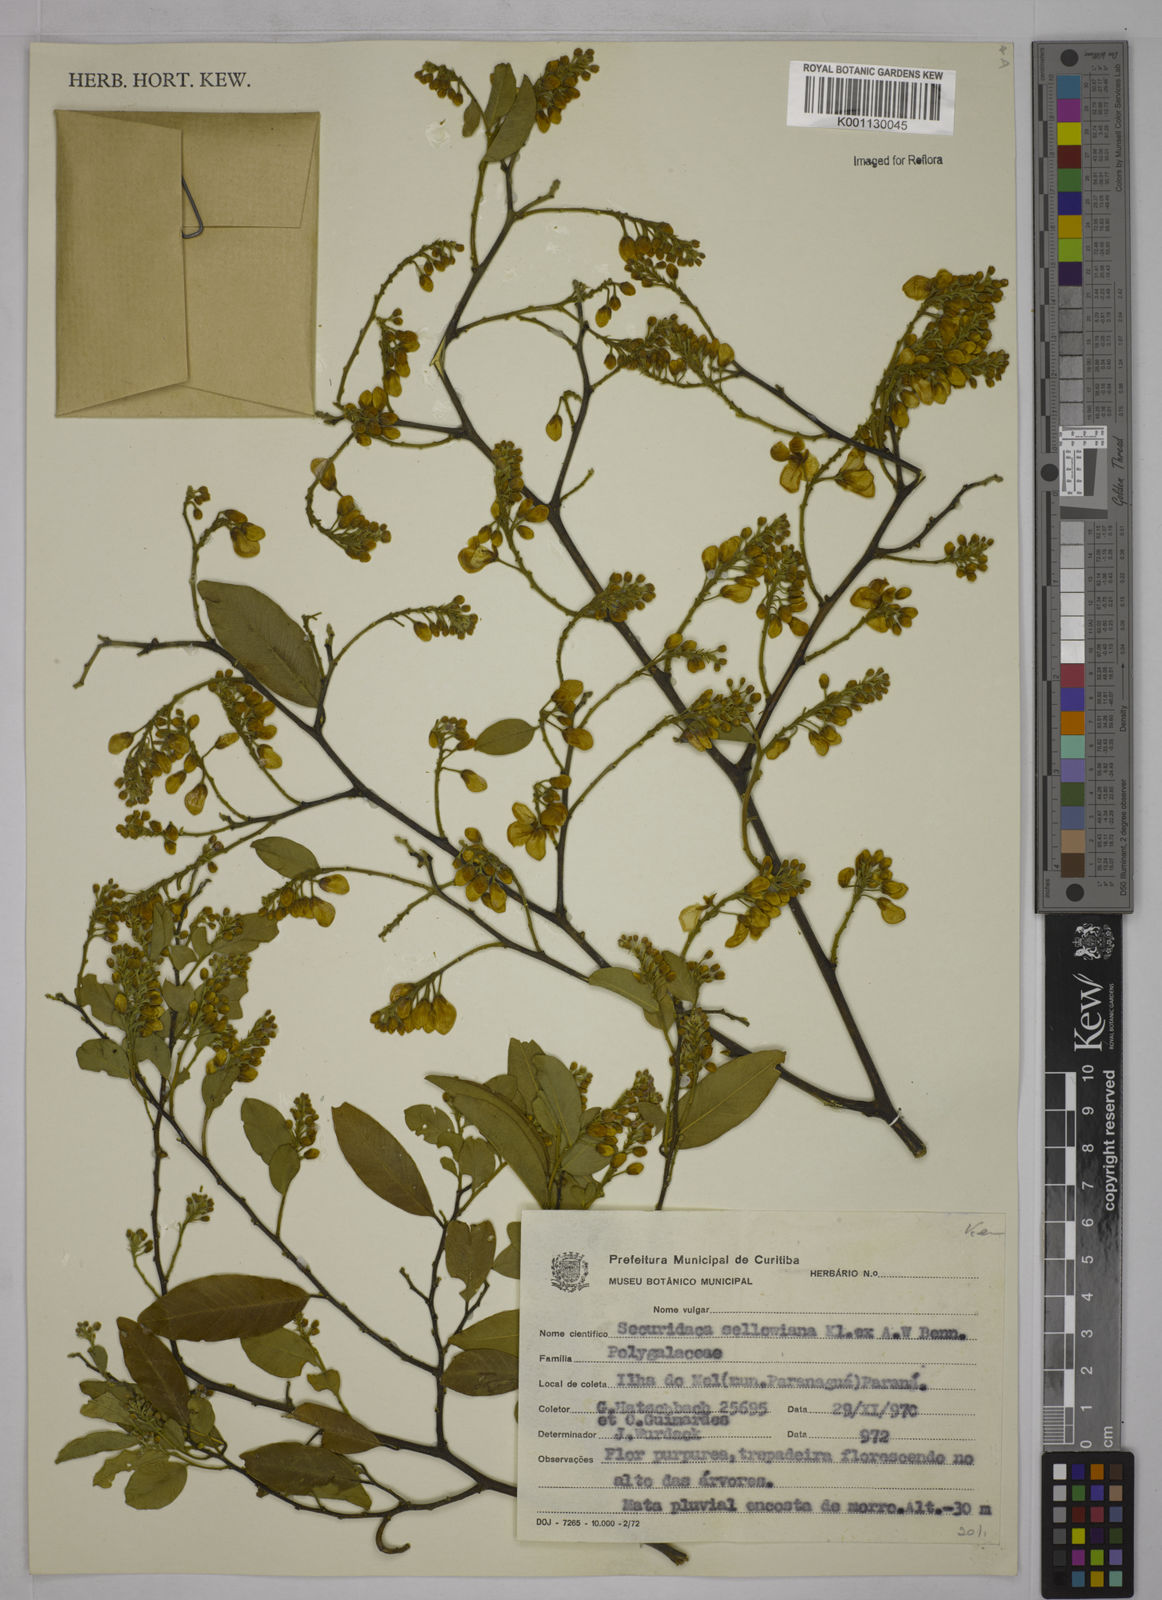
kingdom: Plantae
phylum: Tracheophyta
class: Magnoliopsida
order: Fabales
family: Polygalaceae
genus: Securidaca
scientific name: Securidaca
